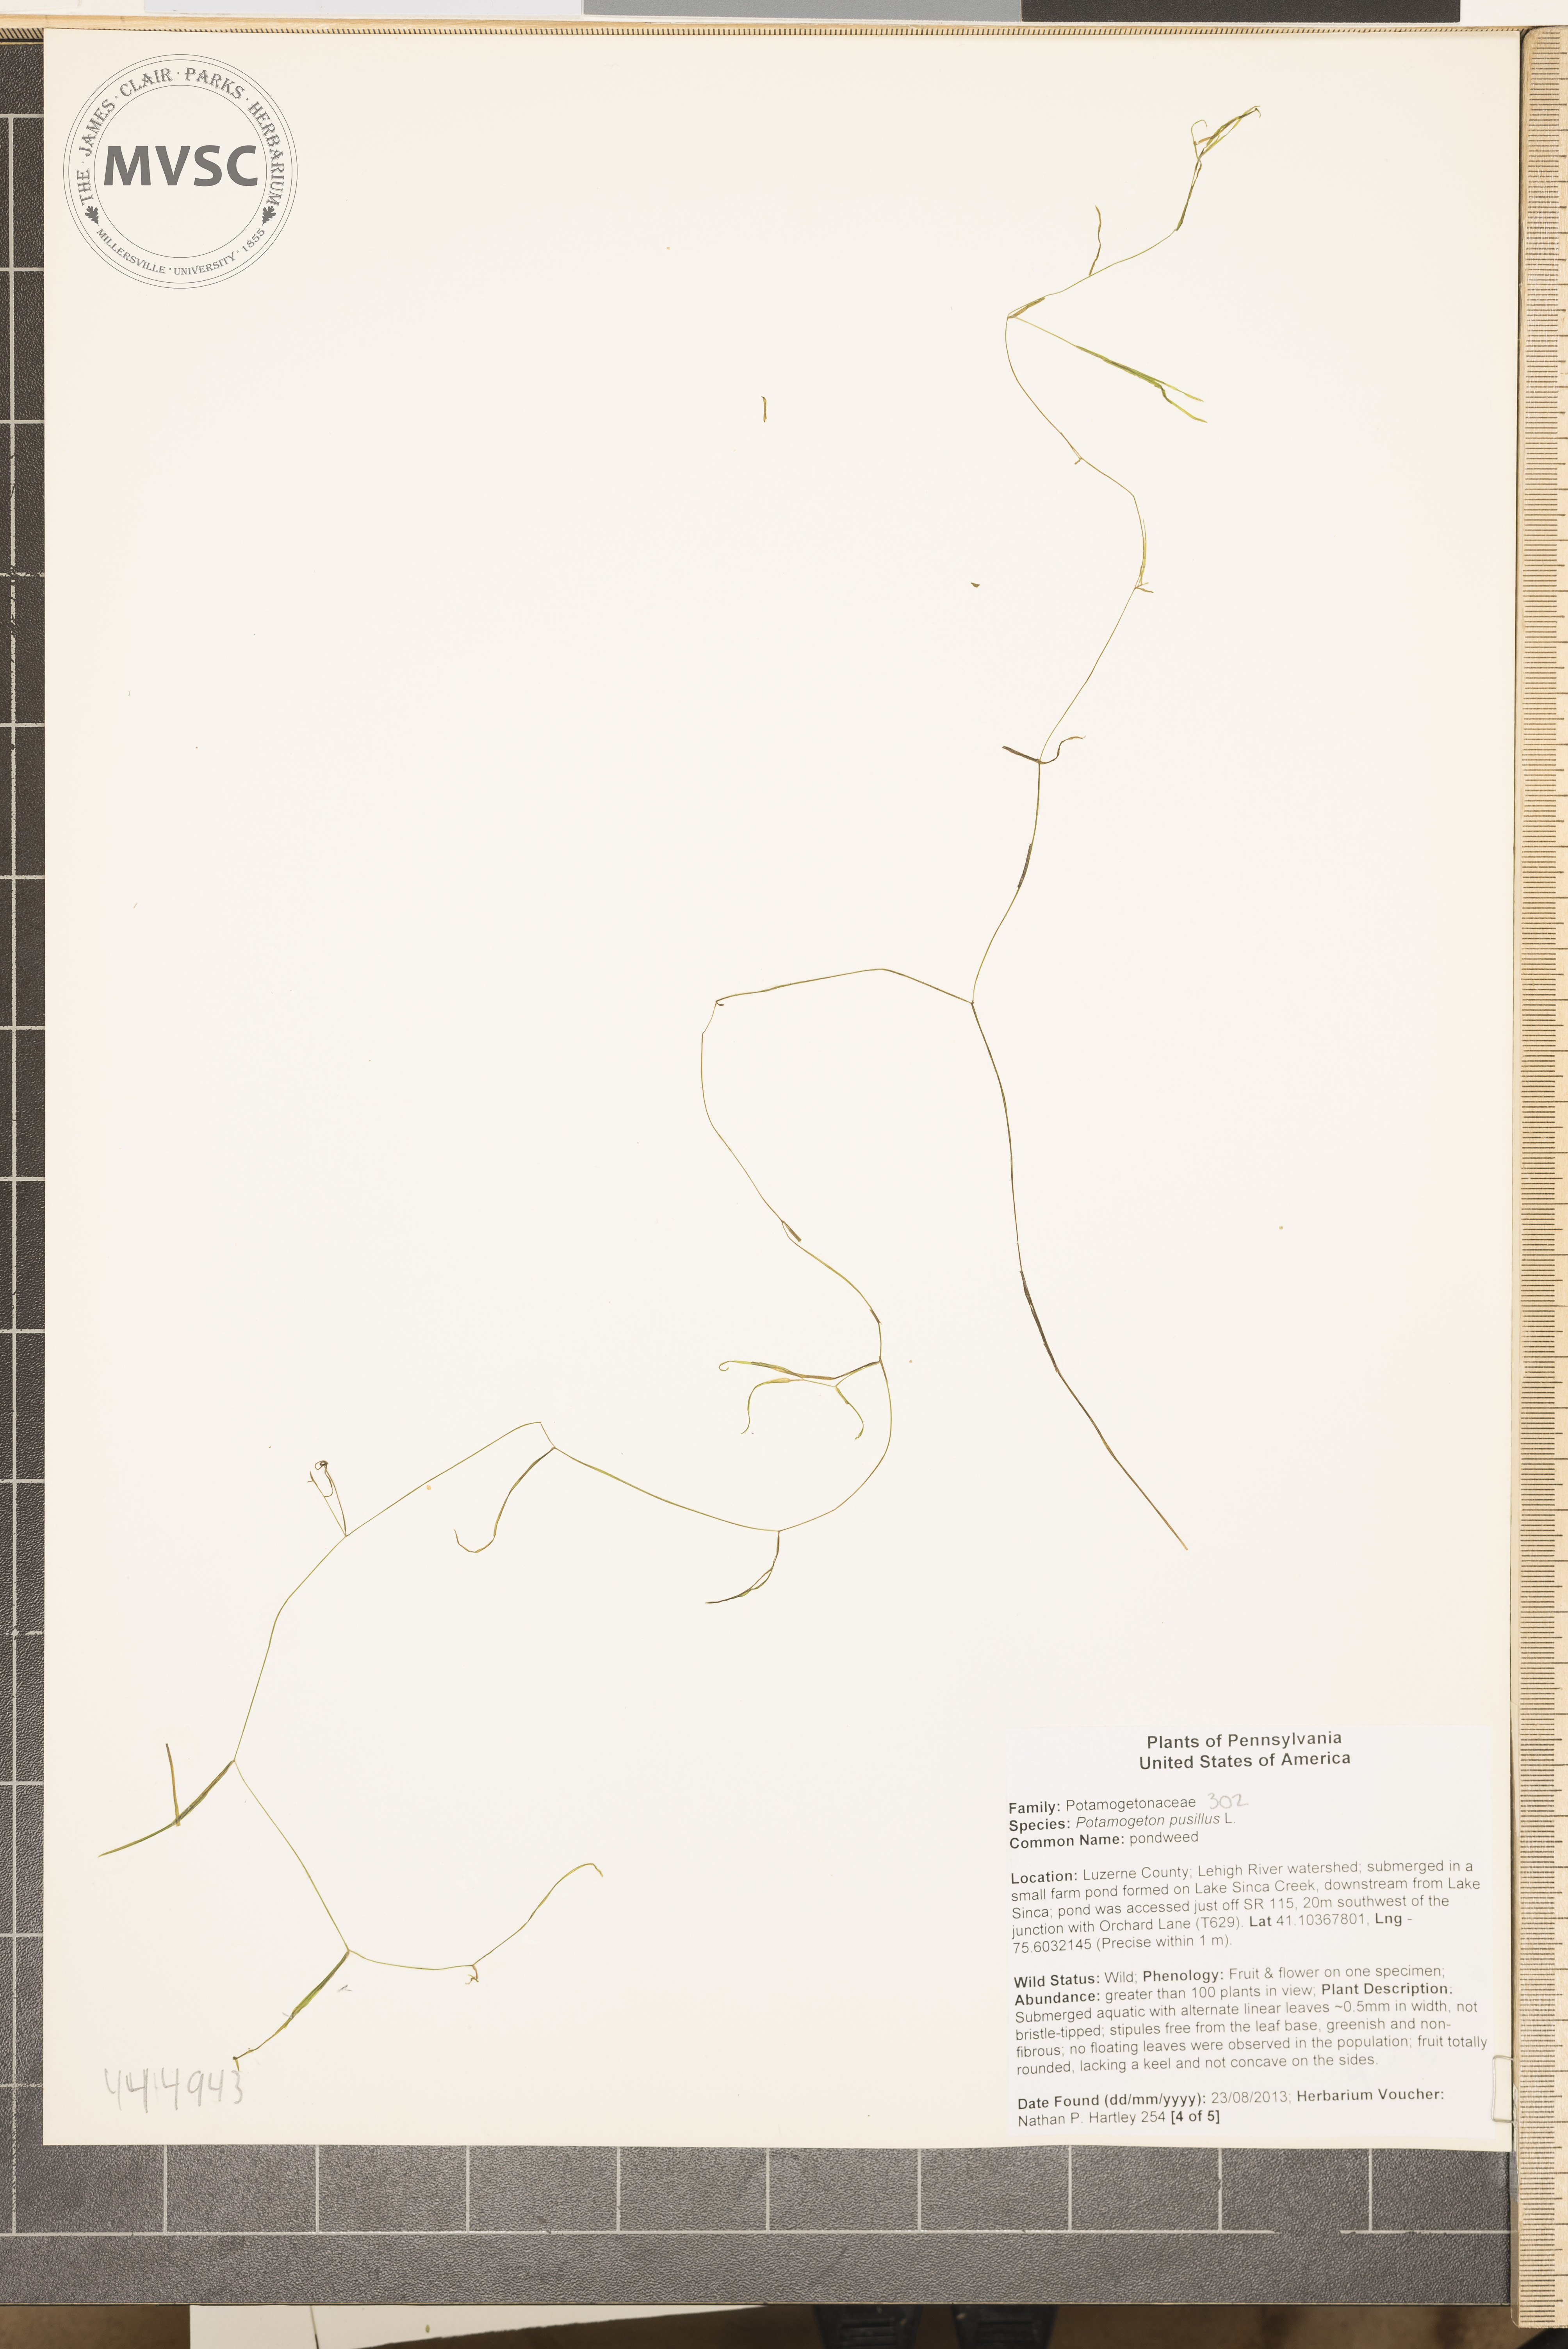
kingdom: Plantae
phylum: Tracheophyta
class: Liliopsida
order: Alismatales
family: Potamogetonaceae
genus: Potamogeton
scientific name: Potamogeton pusillus
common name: pondweed
